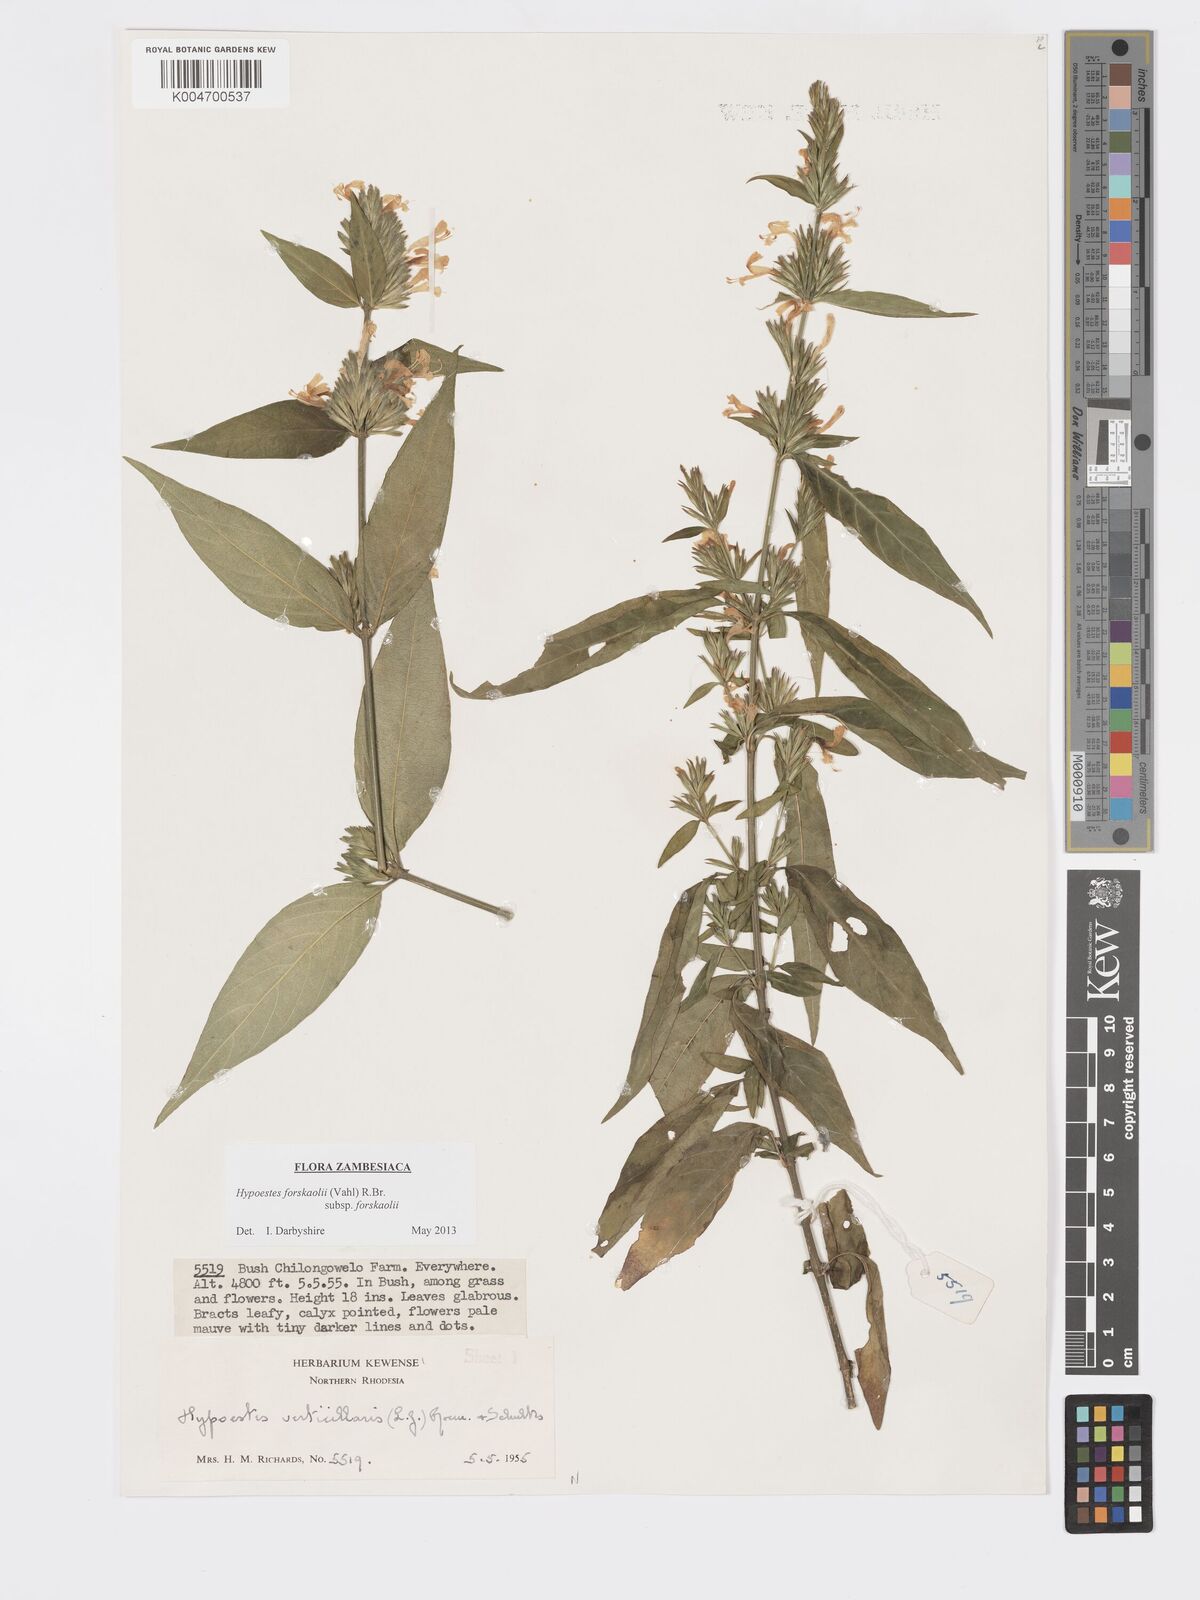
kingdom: Plantae
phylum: Tracheophyta
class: Magnoliopsida
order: Lamiales
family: Acanthaceae
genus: Hypoestes
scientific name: Hypoestes forskaolii
